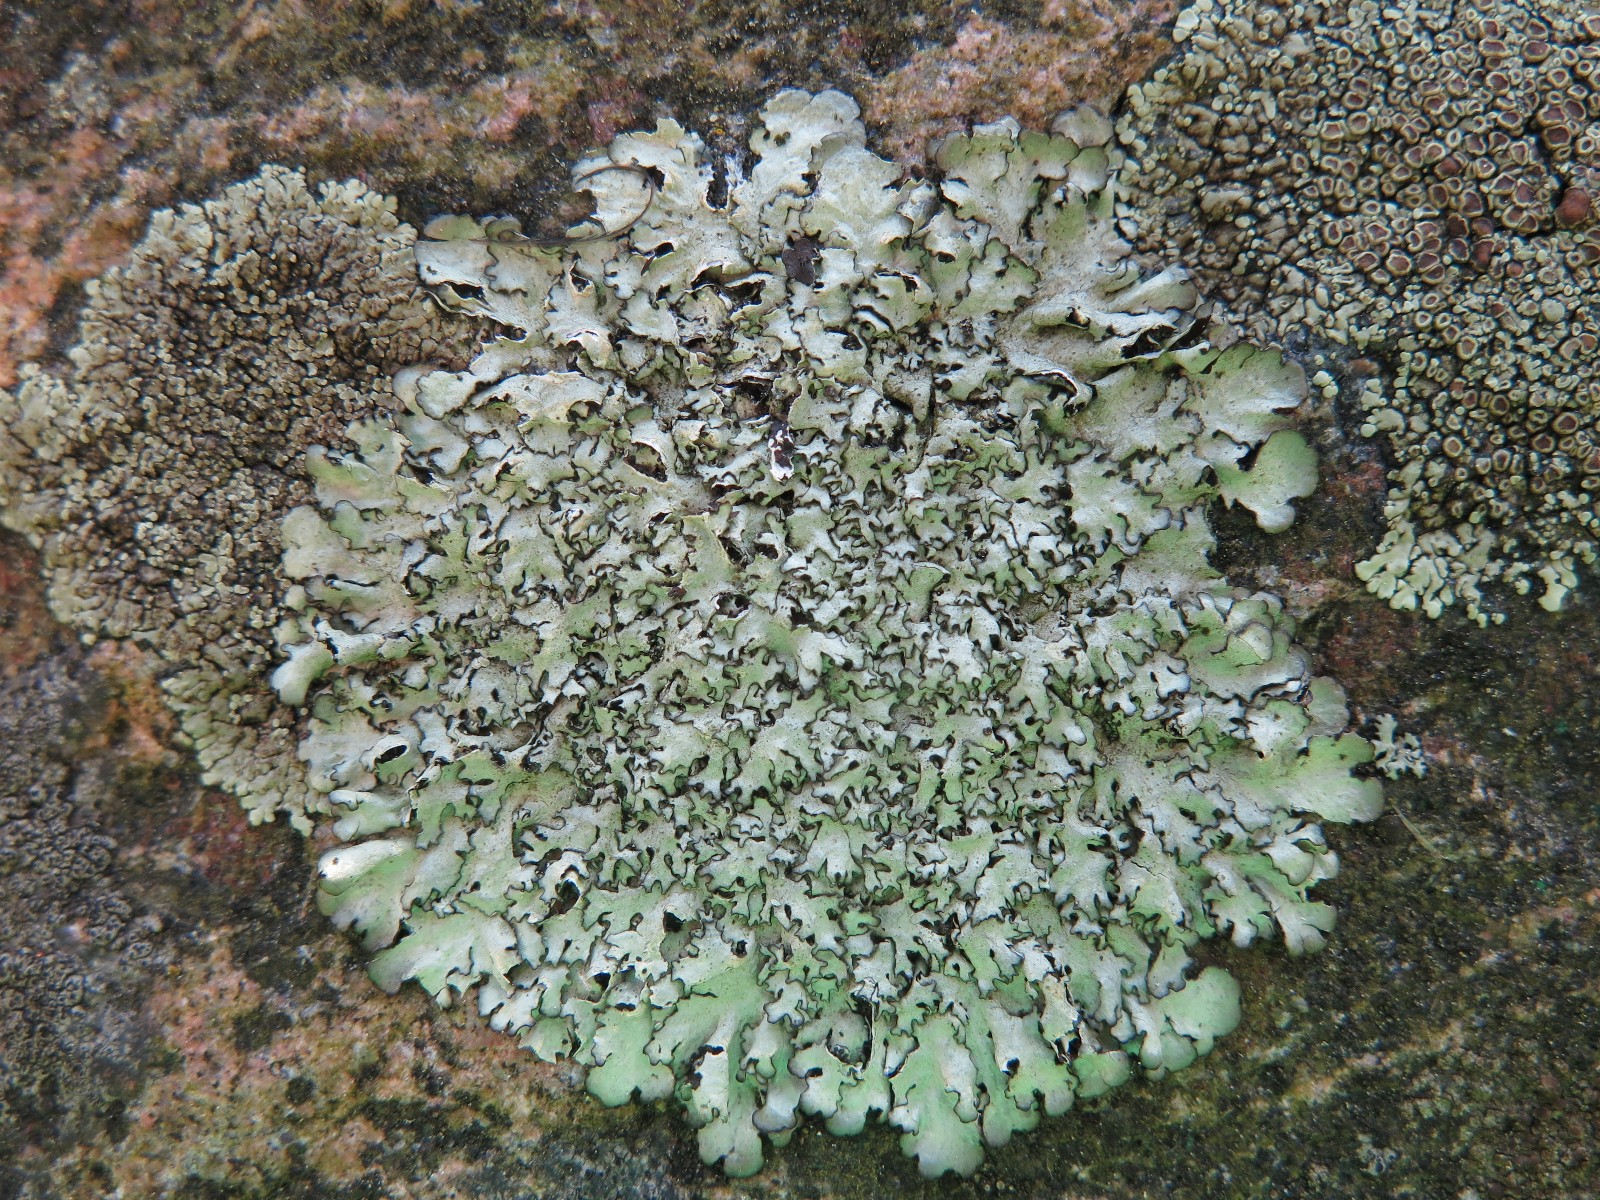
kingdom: Fungi
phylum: Ascomycota
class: Lecanoromycetes
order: Lecanorales
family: Parmeliaceae
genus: Xanthoparmelia
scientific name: Xanthoparmelia stenophylla
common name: Shingled rock shield
